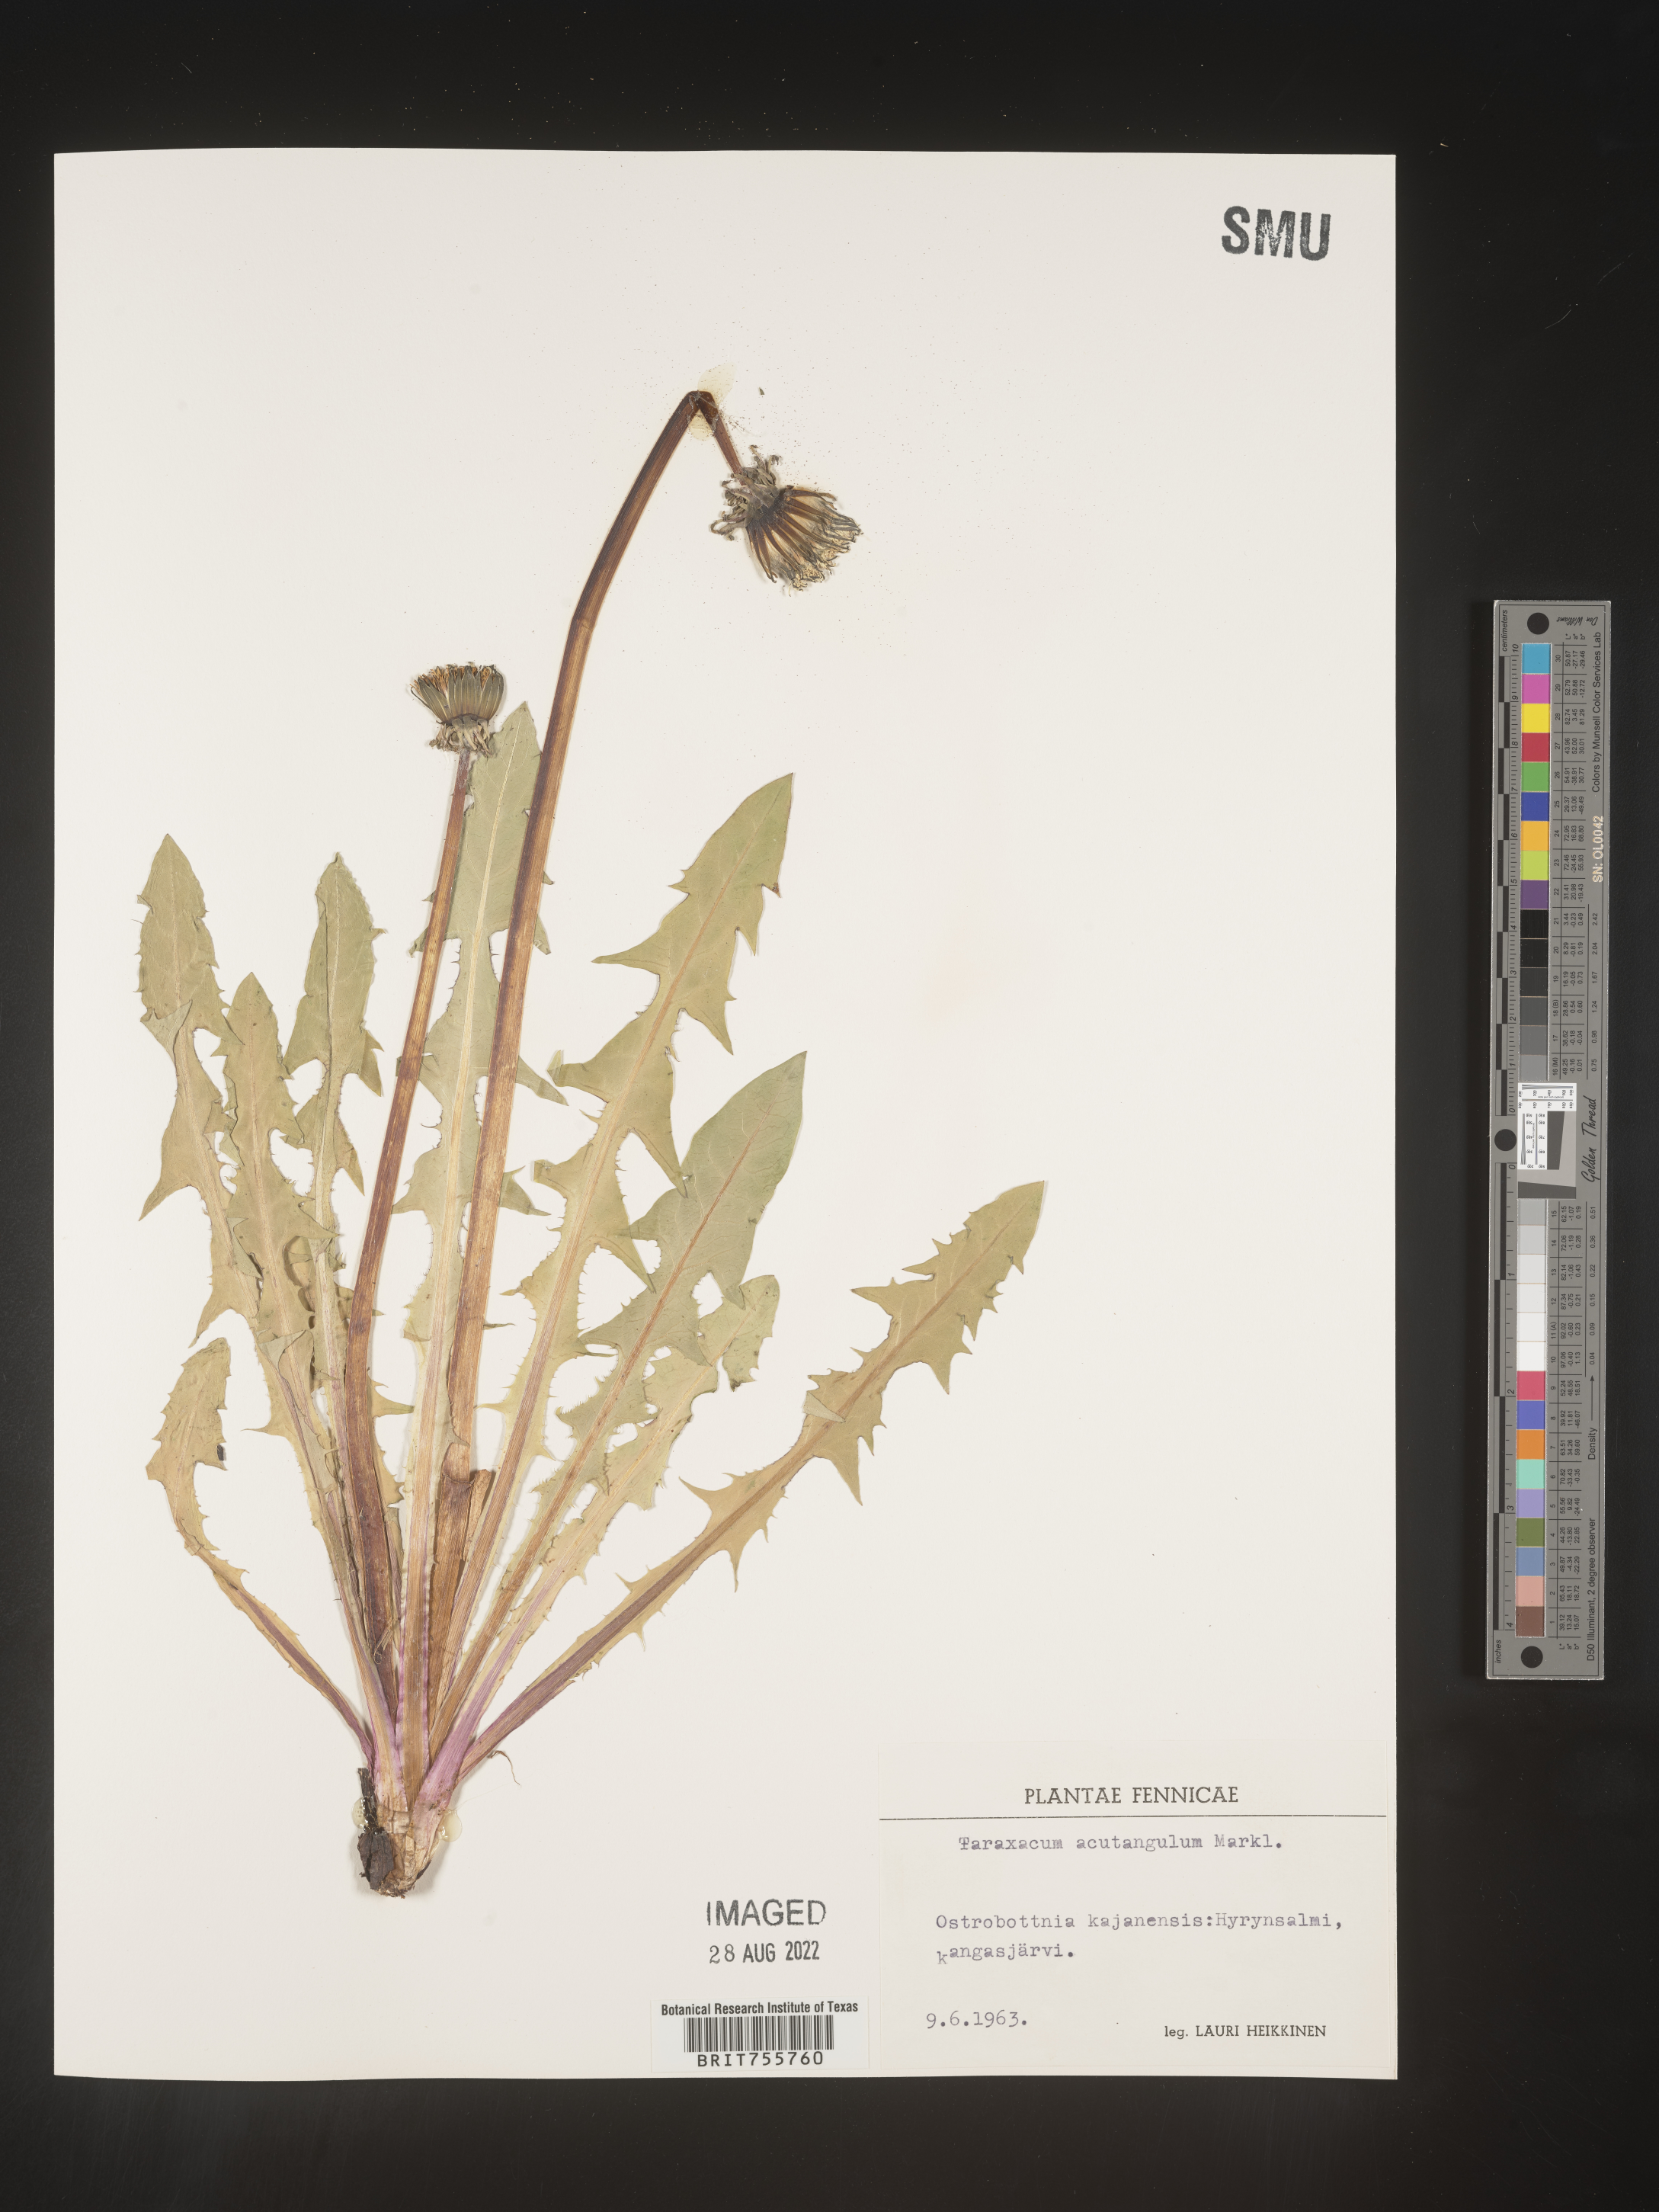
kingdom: Plantae
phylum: Tracheophyta
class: Magnoliopsida
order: Asterales
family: Asteraceae
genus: Taraxacum
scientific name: Taraxacum
